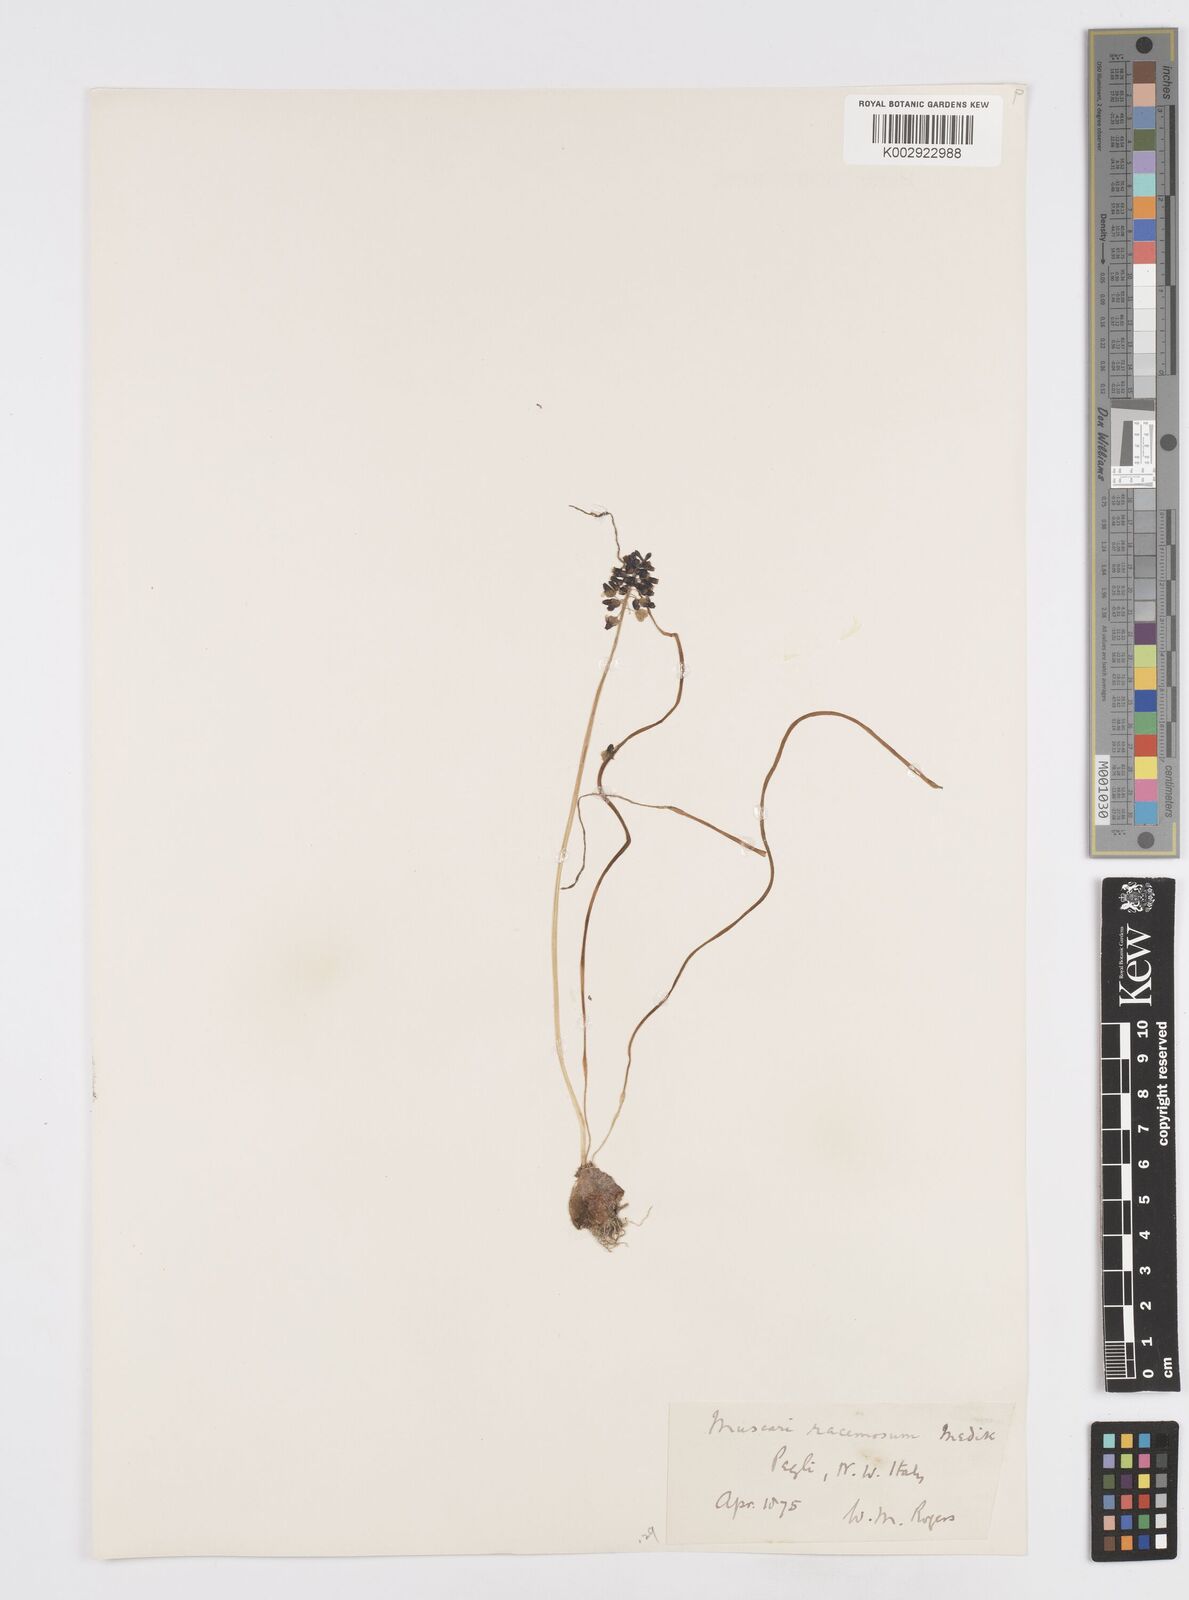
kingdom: Plantae
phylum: Tracheophyta
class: Liliopsida
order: Asparagales
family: Asparagaceae
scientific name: Asparagaceae
